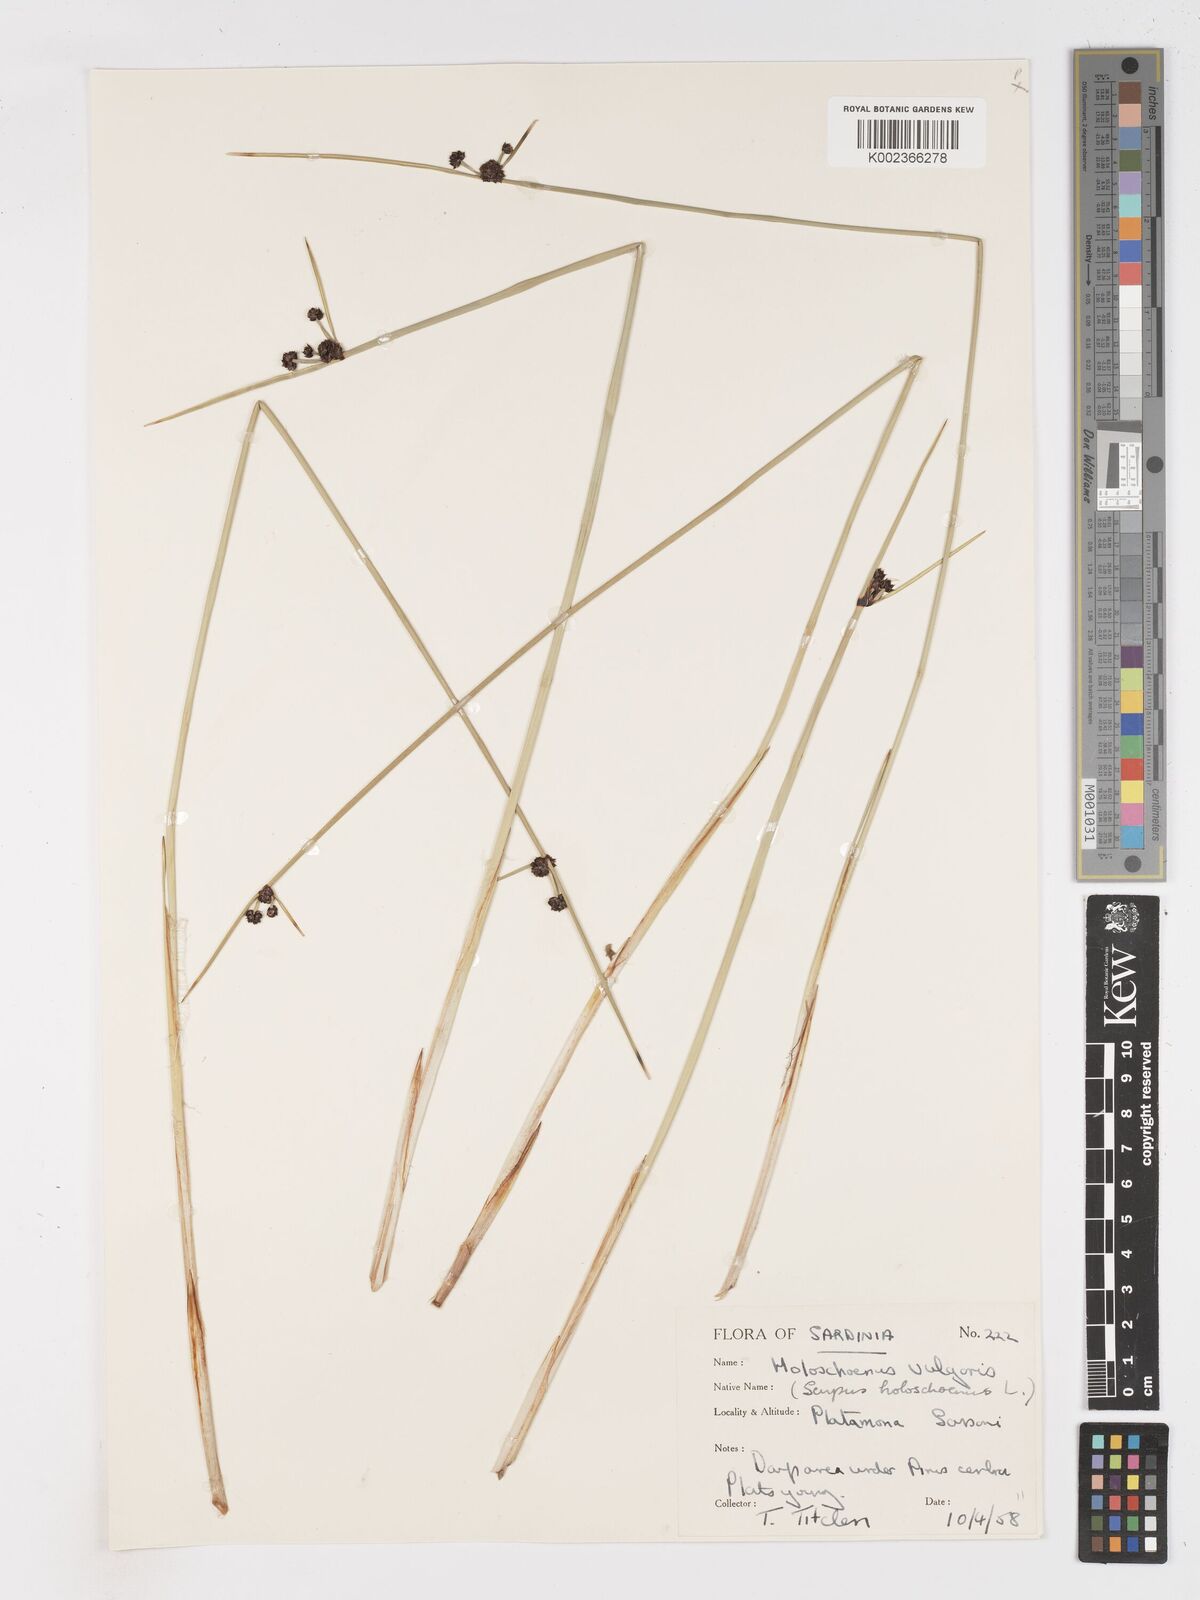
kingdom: Plantae
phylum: Tracheophyta
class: Liliopsida
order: Poales
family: Cyperaceae
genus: Scirpoides
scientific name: Scirpoides holoschoenus
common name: Round-headed club-rush
